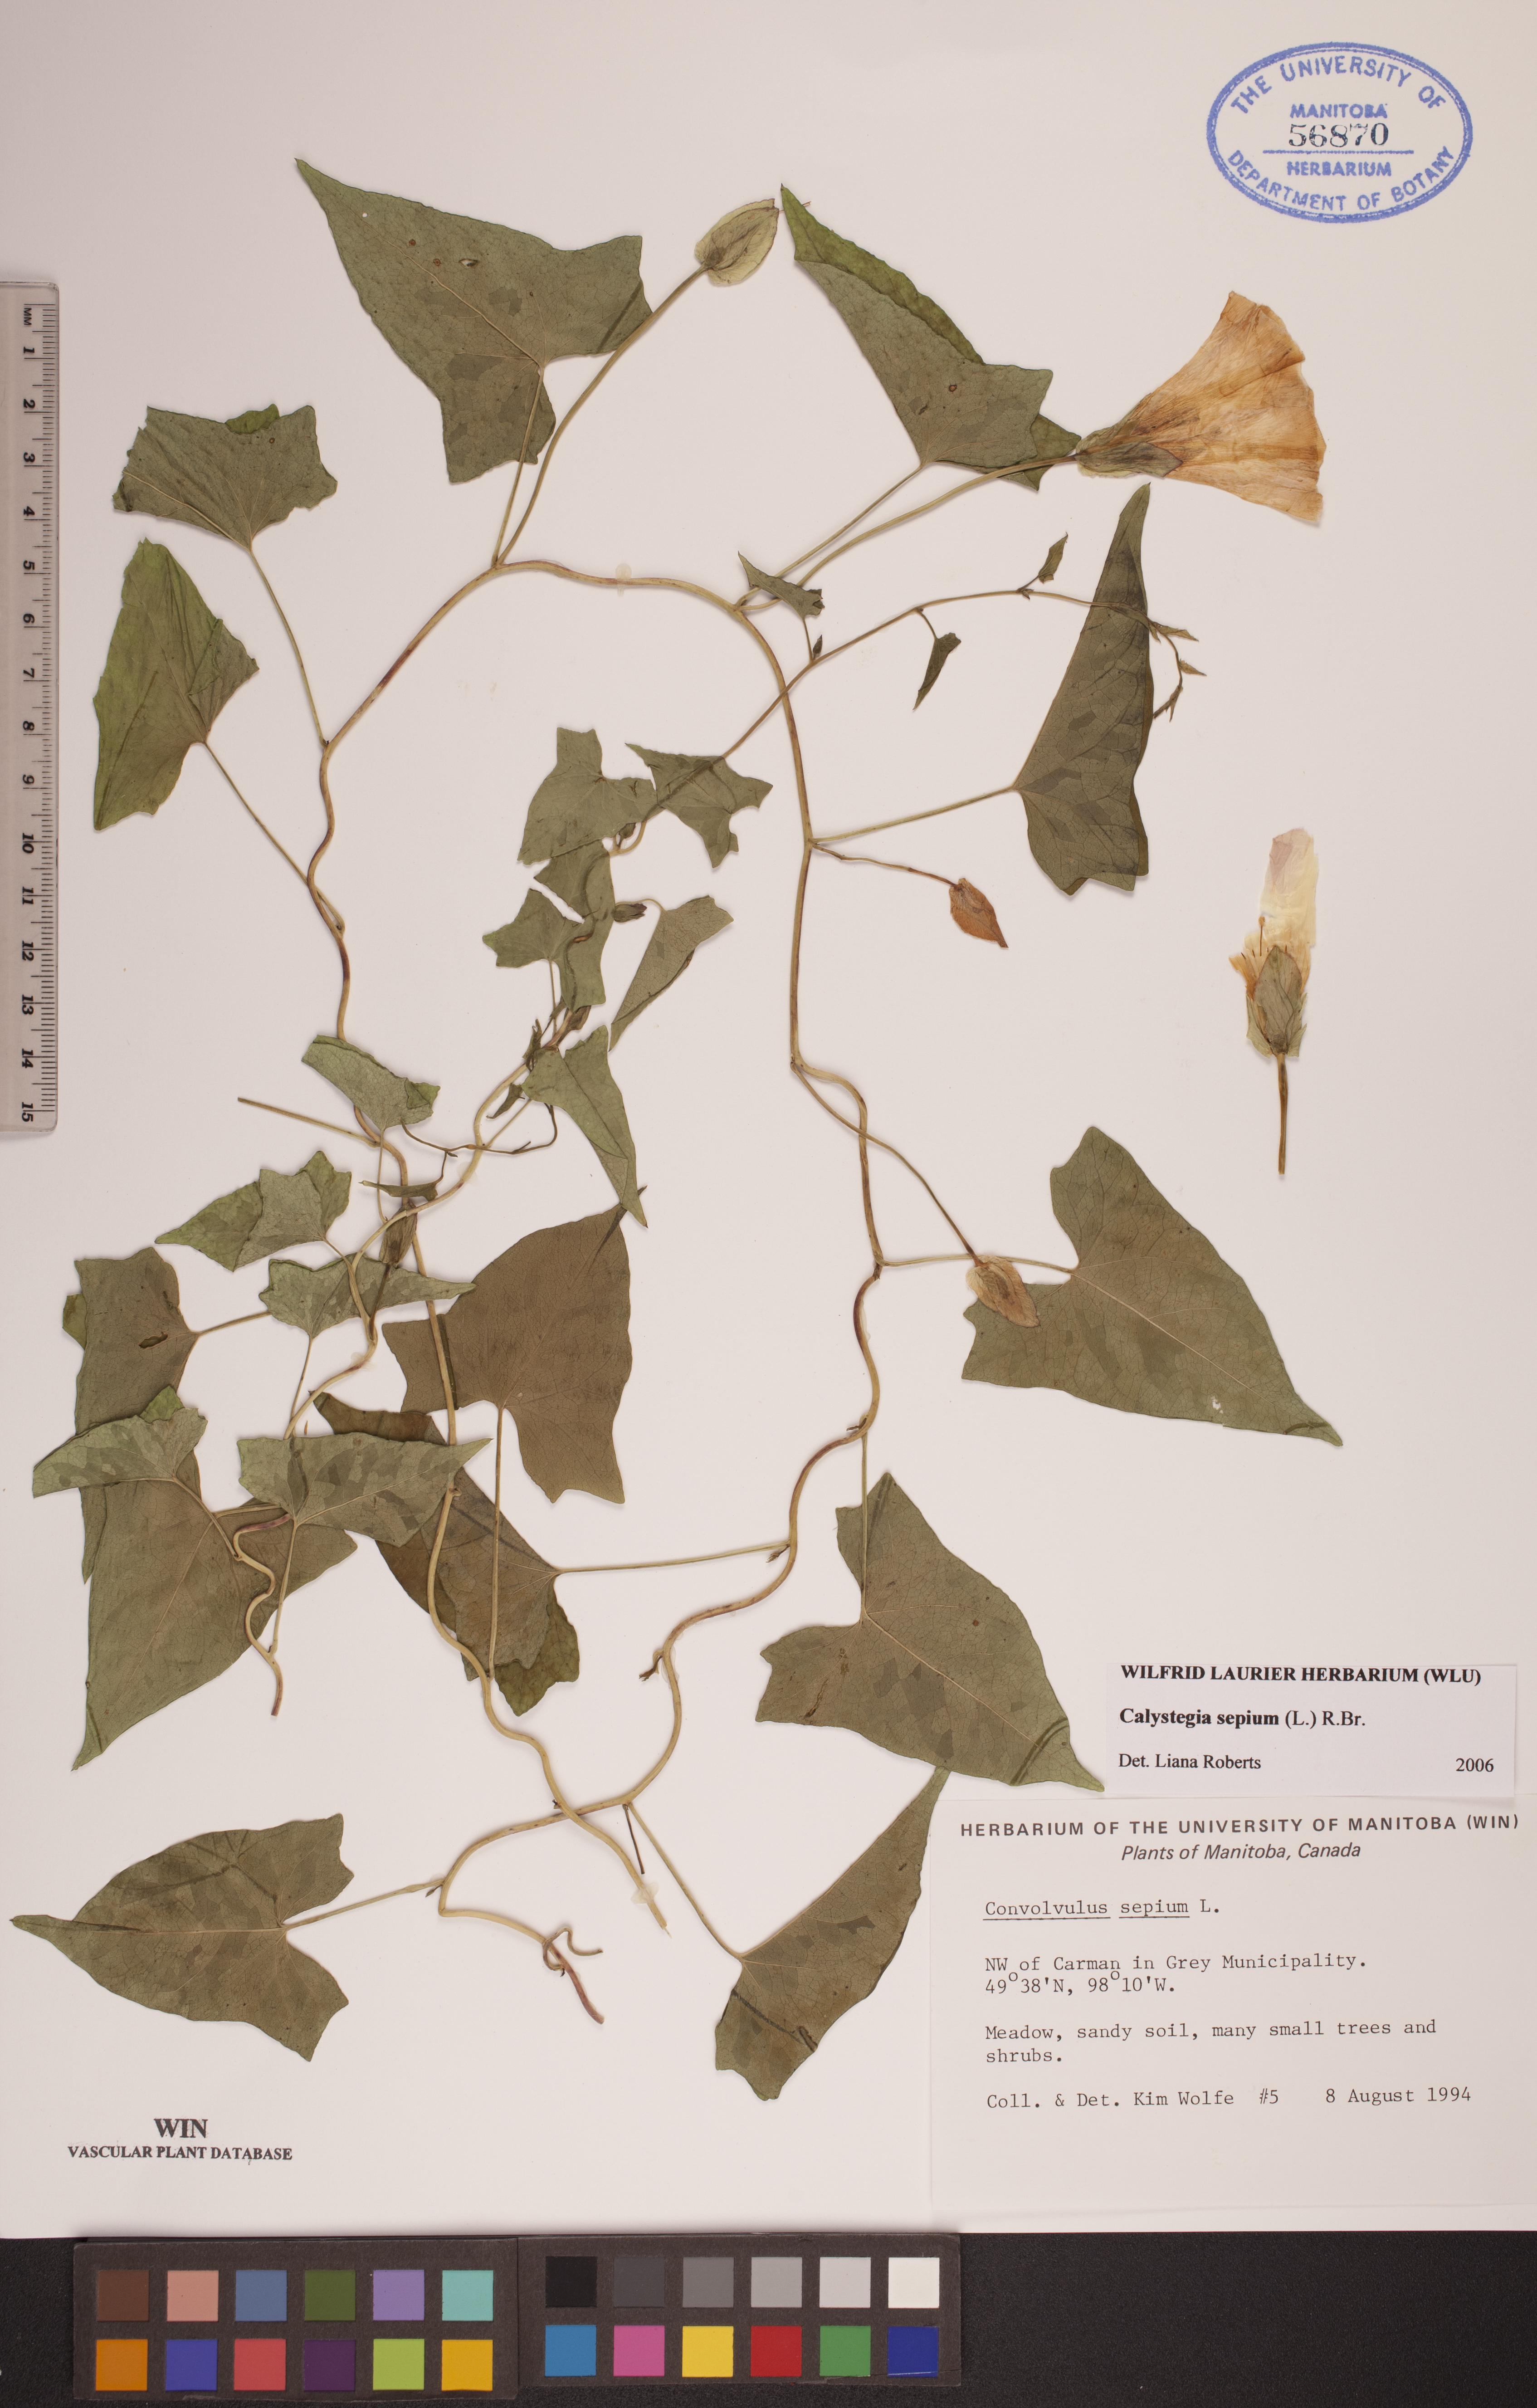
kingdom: Plantae
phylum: Tracheophyta
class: Magnoliopsida
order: Solanales
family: Convolvulaceae
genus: Calystegia
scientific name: Calystegia sepium
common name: Hedge bindweed
